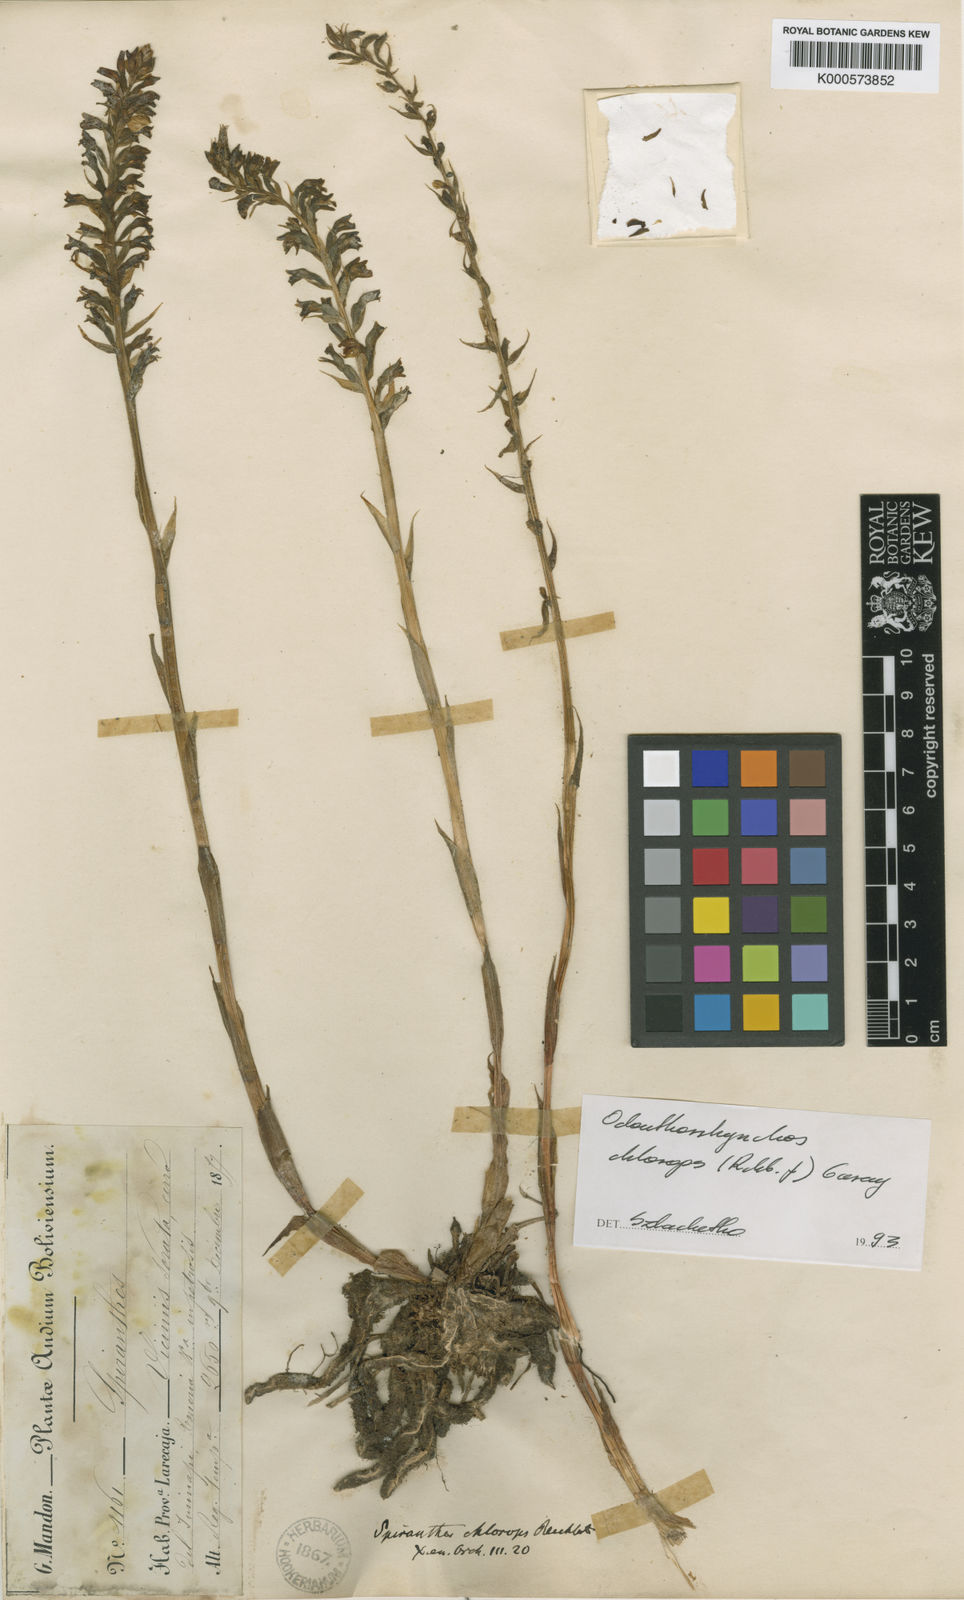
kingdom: Plantae
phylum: Tracheophyta
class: Liliopsida
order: Asparagales
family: Orchidaceae
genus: Brachystele
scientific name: Brachystele chlorops
